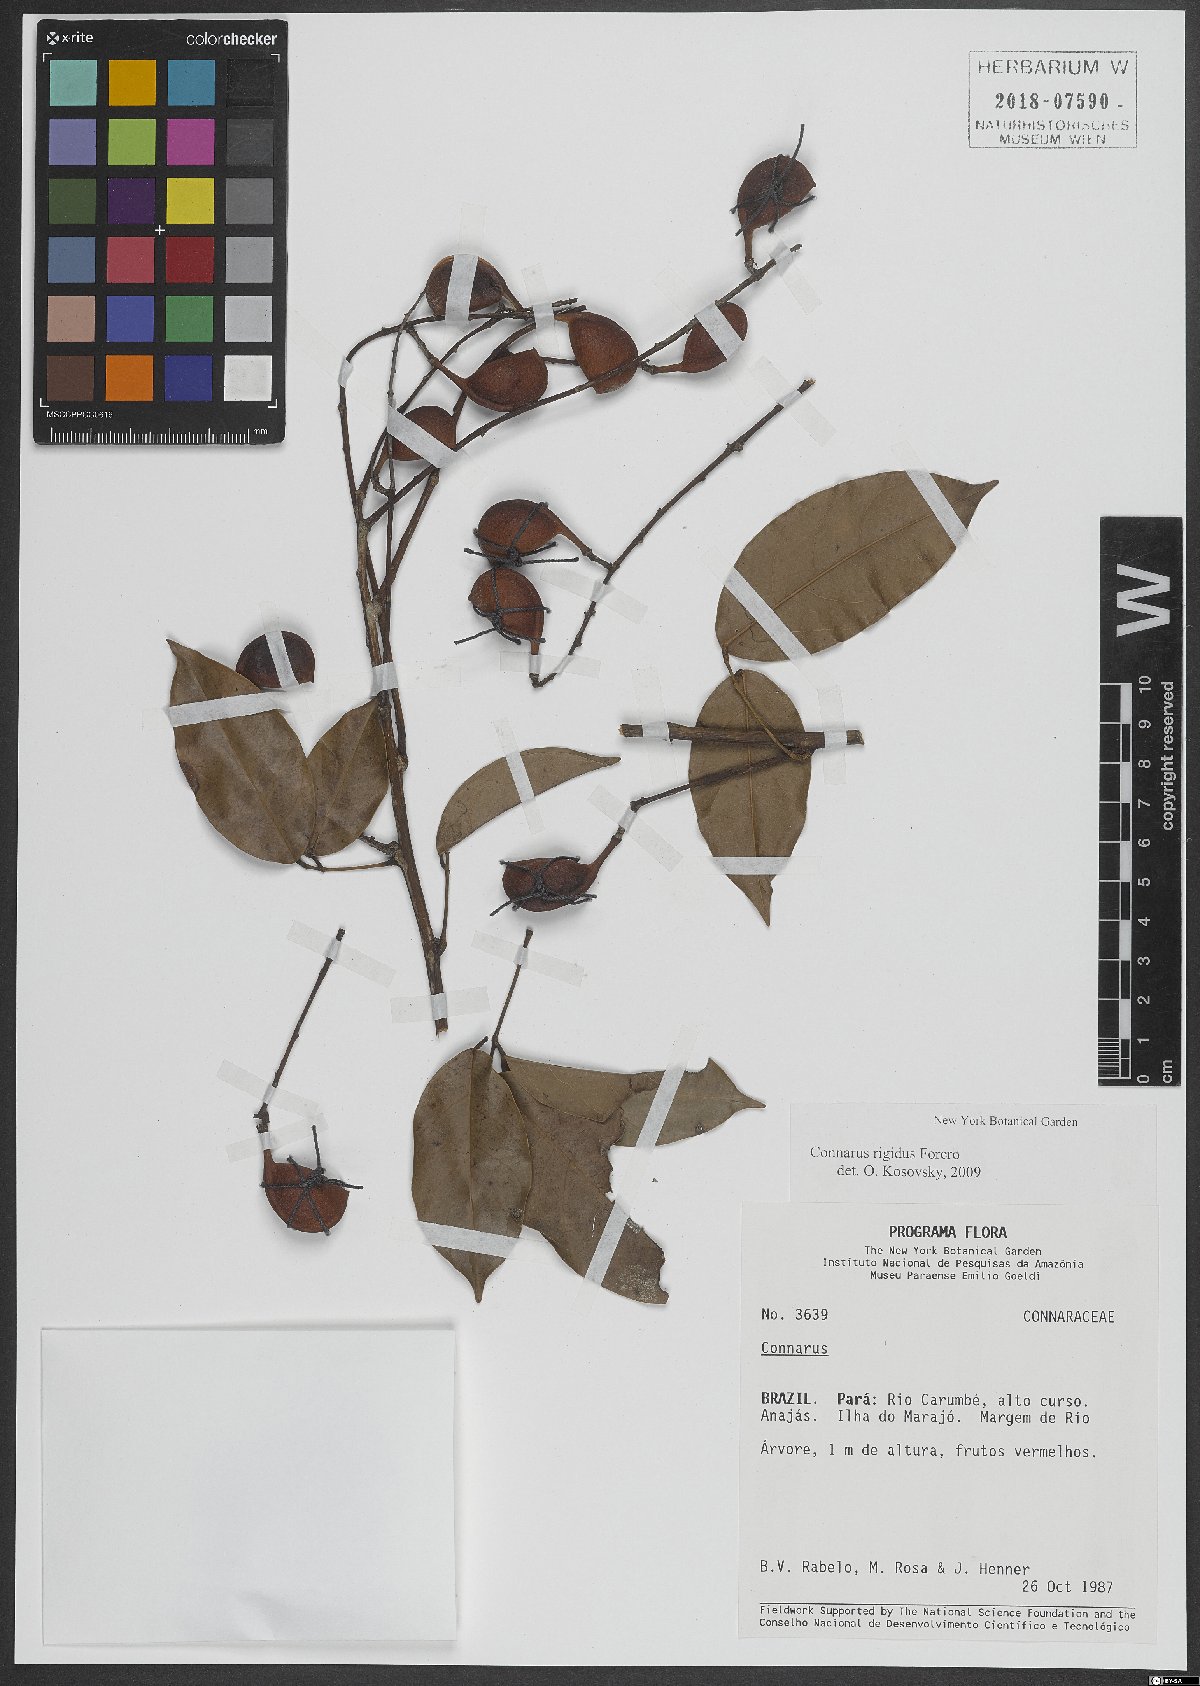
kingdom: Plantae
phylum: Tracheophyta
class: Magnoliopsida
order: Oxalidales
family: Connaraceae
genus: Connarus
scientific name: Connarus rigidus
